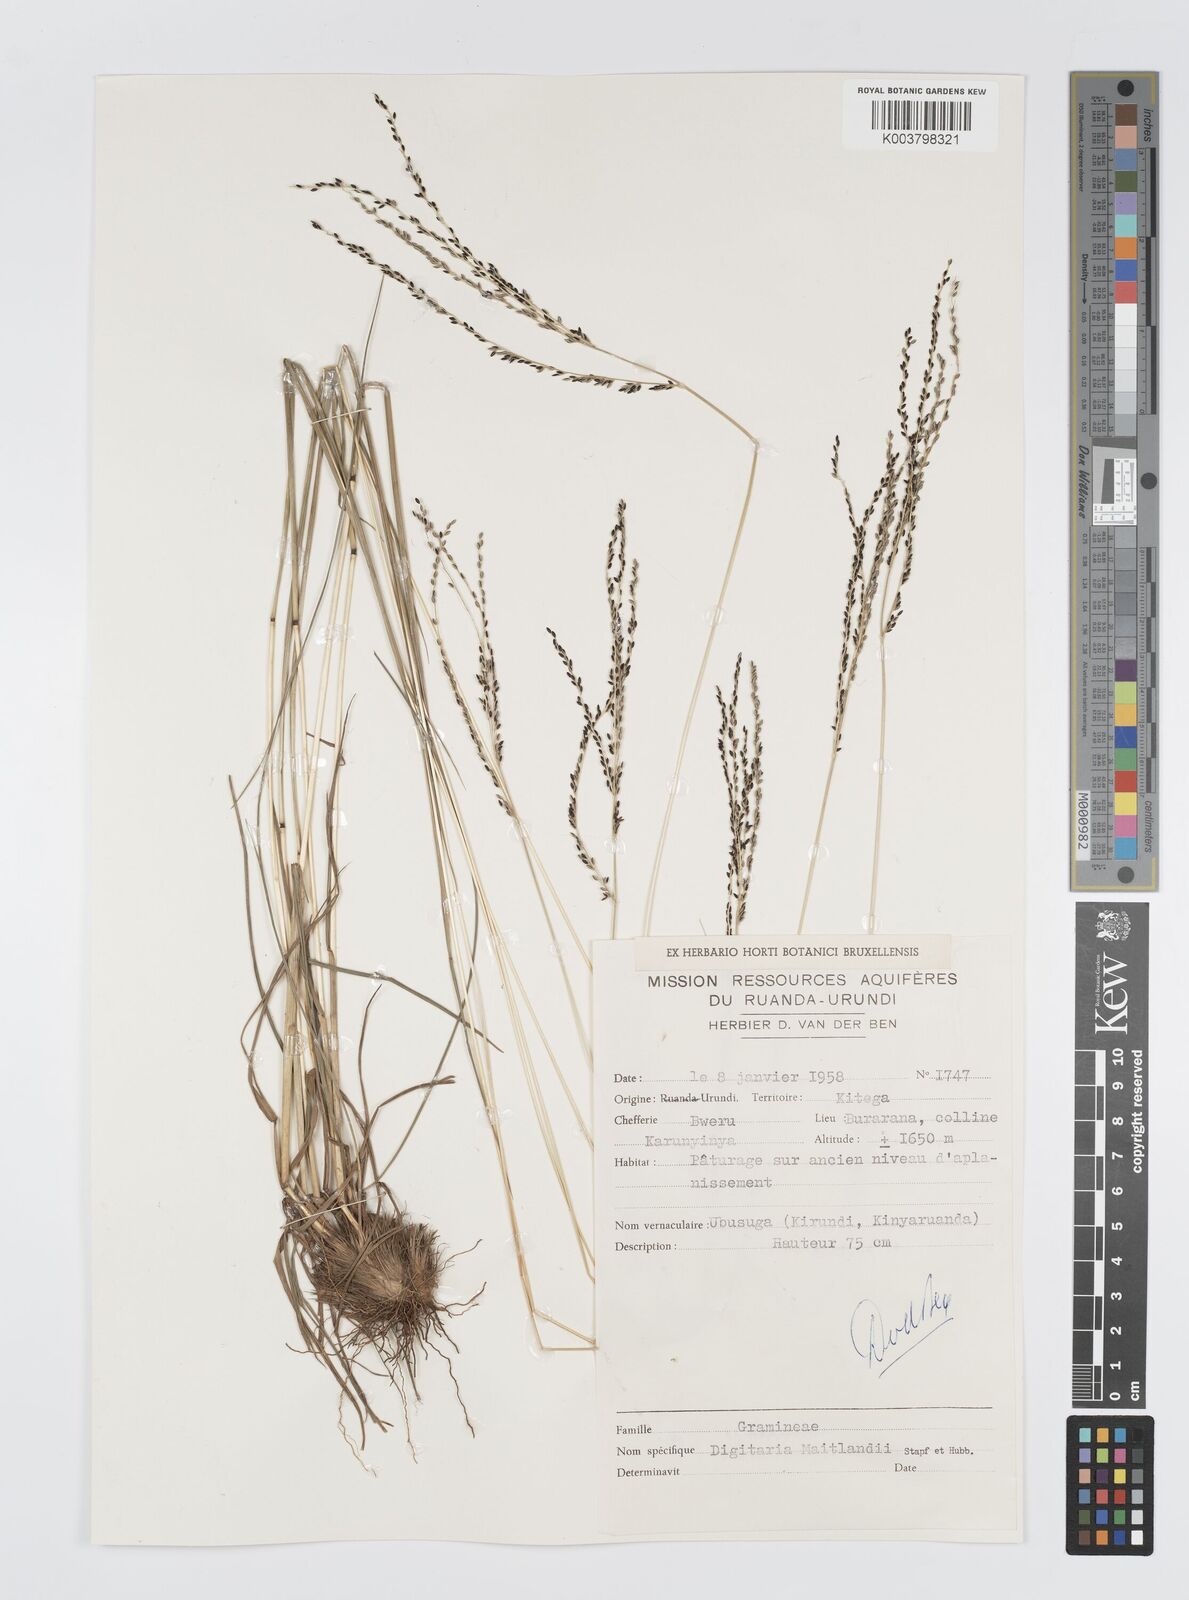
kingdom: Plantae
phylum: Tracheophyta
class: Liliopsida
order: Poales
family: Poaceae
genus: Digitaria
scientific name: Digitaria maitlandii
